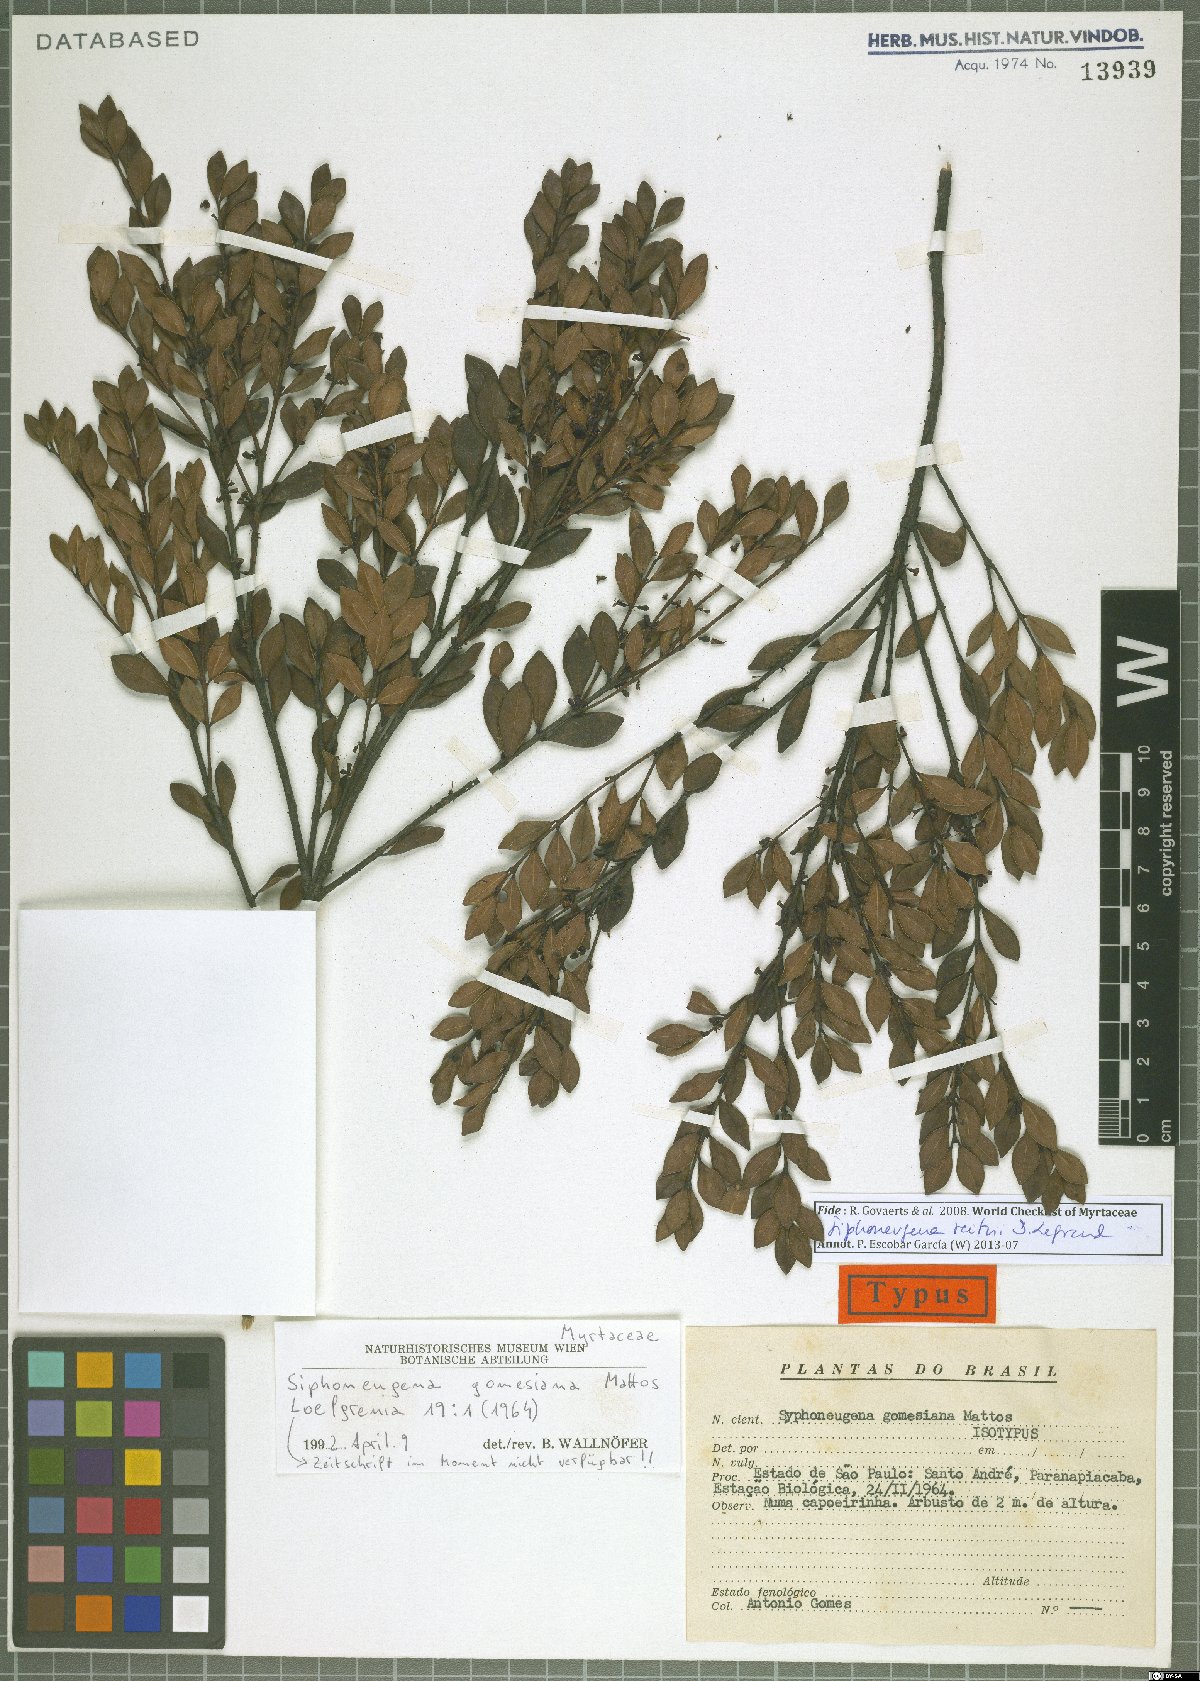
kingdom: Plantae
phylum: Tracheophyta
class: Magnoliopsida
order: Myrtales
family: Myrtaceae
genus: Siphoneugena
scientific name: Siphoneugena reitzii
